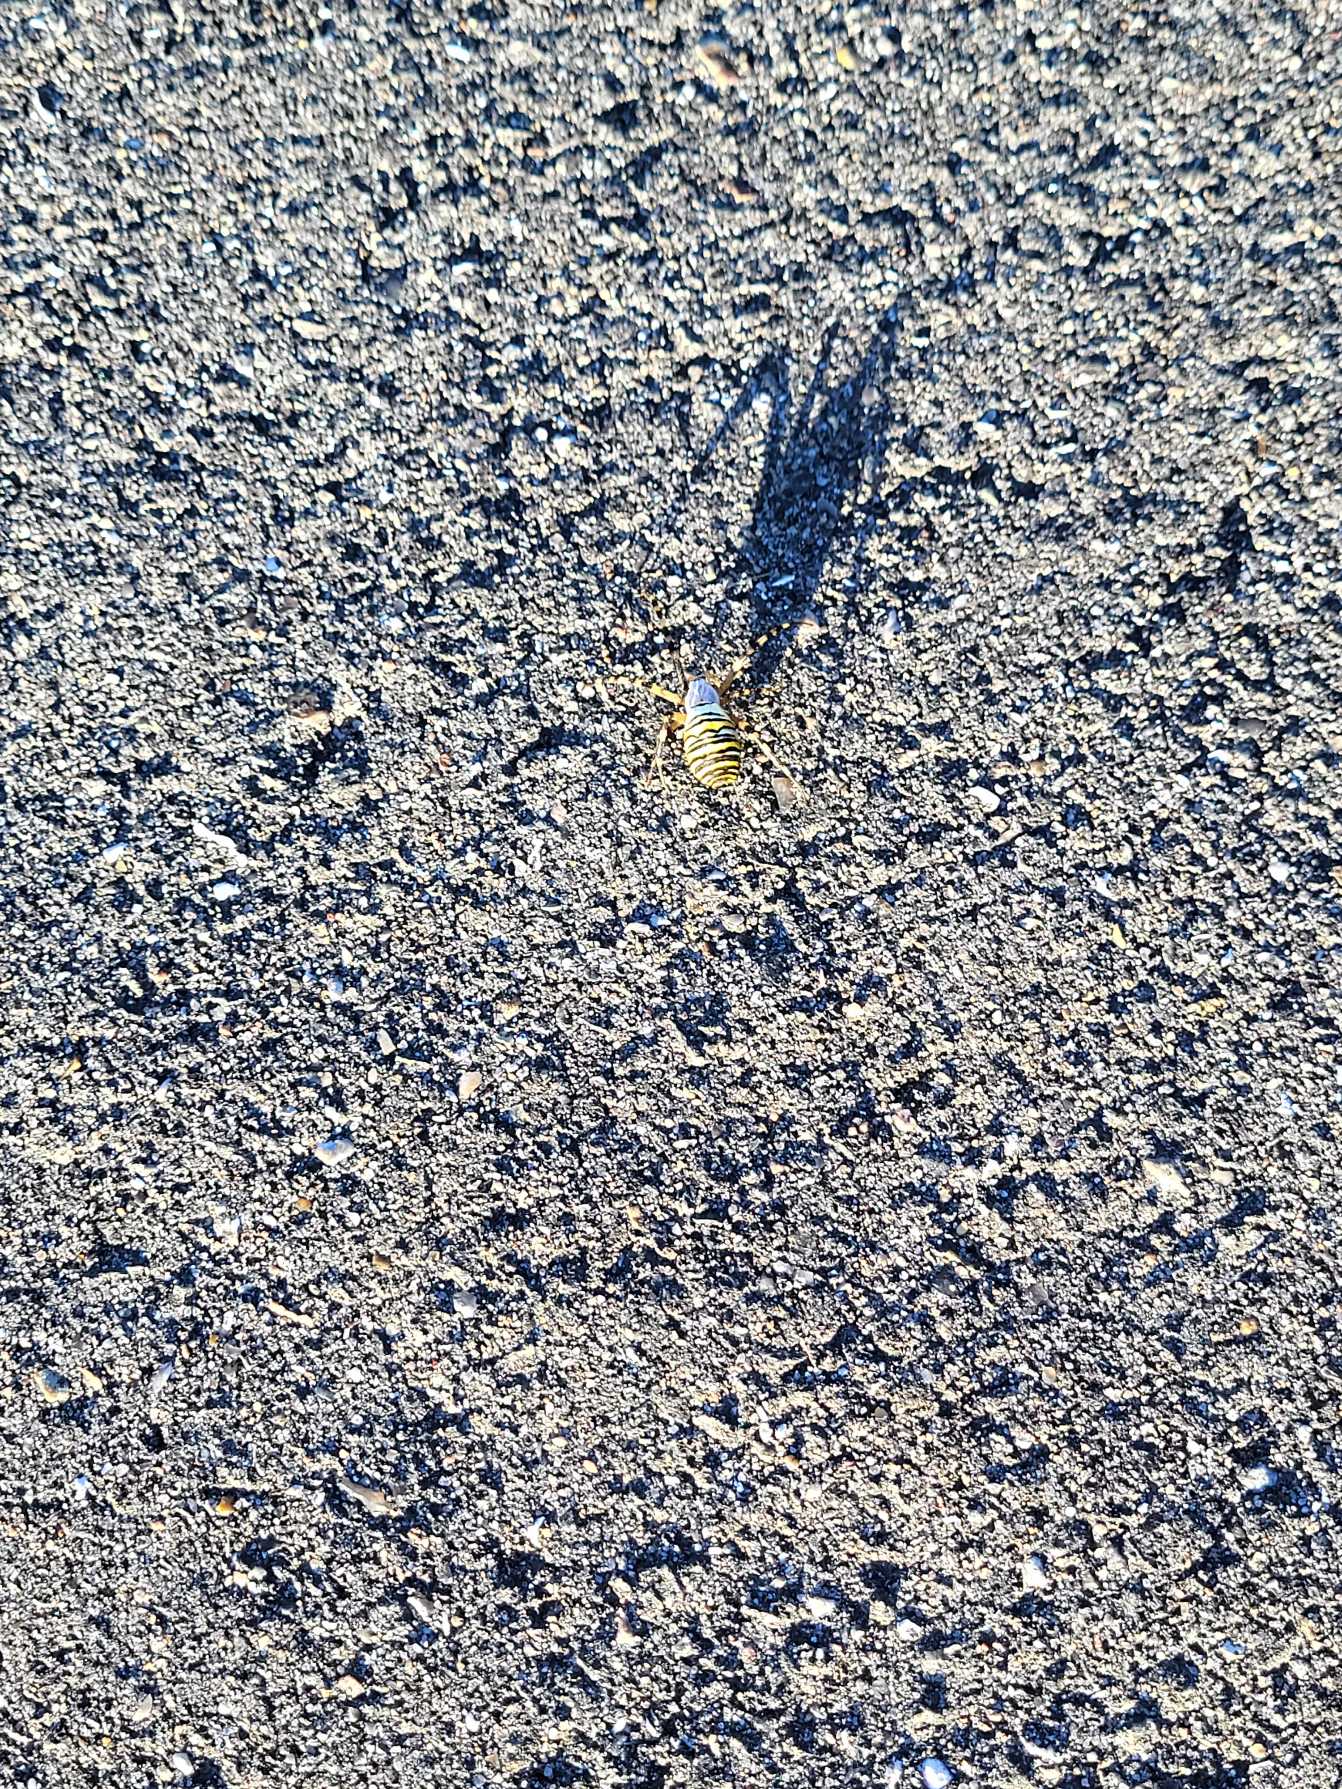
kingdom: Animalia
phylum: Arthropoda
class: Arachnida
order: Araneae
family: Araneidae
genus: Argiope
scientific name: Argiope bruennichi
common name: Hvepseedderkop
